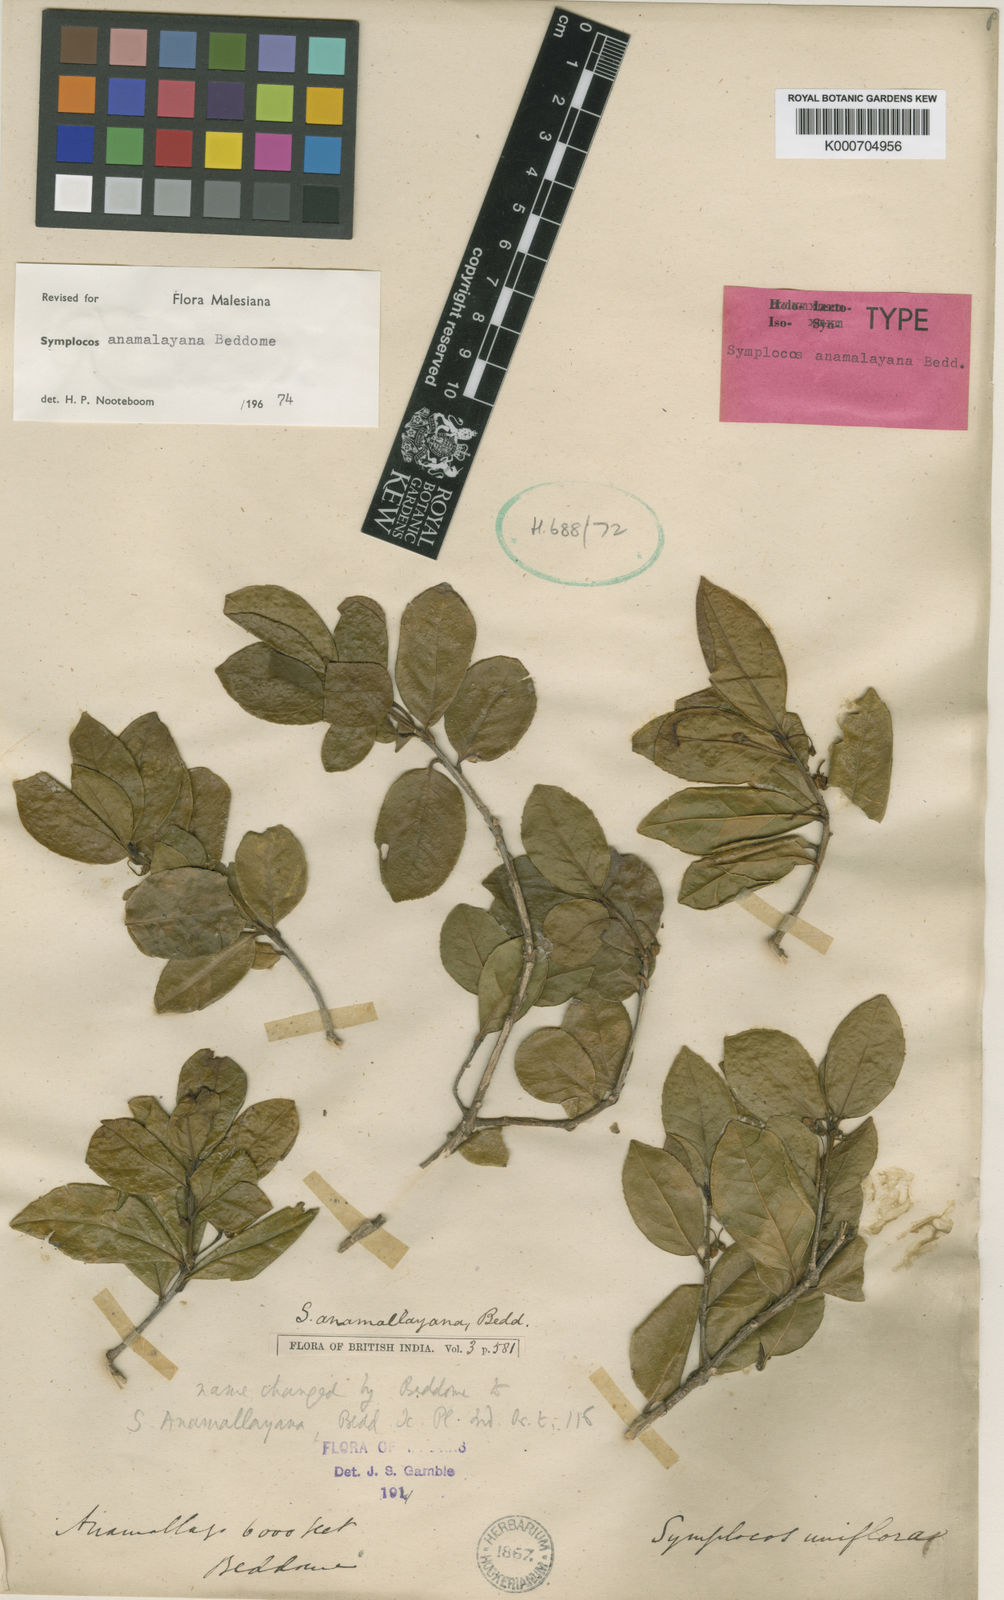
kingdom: Plantae
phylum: Tracheophyta
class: Magnoliopsida
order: Ericales
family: Symplocaceae
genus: Symplocos
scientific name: Symplocos anamallayana
